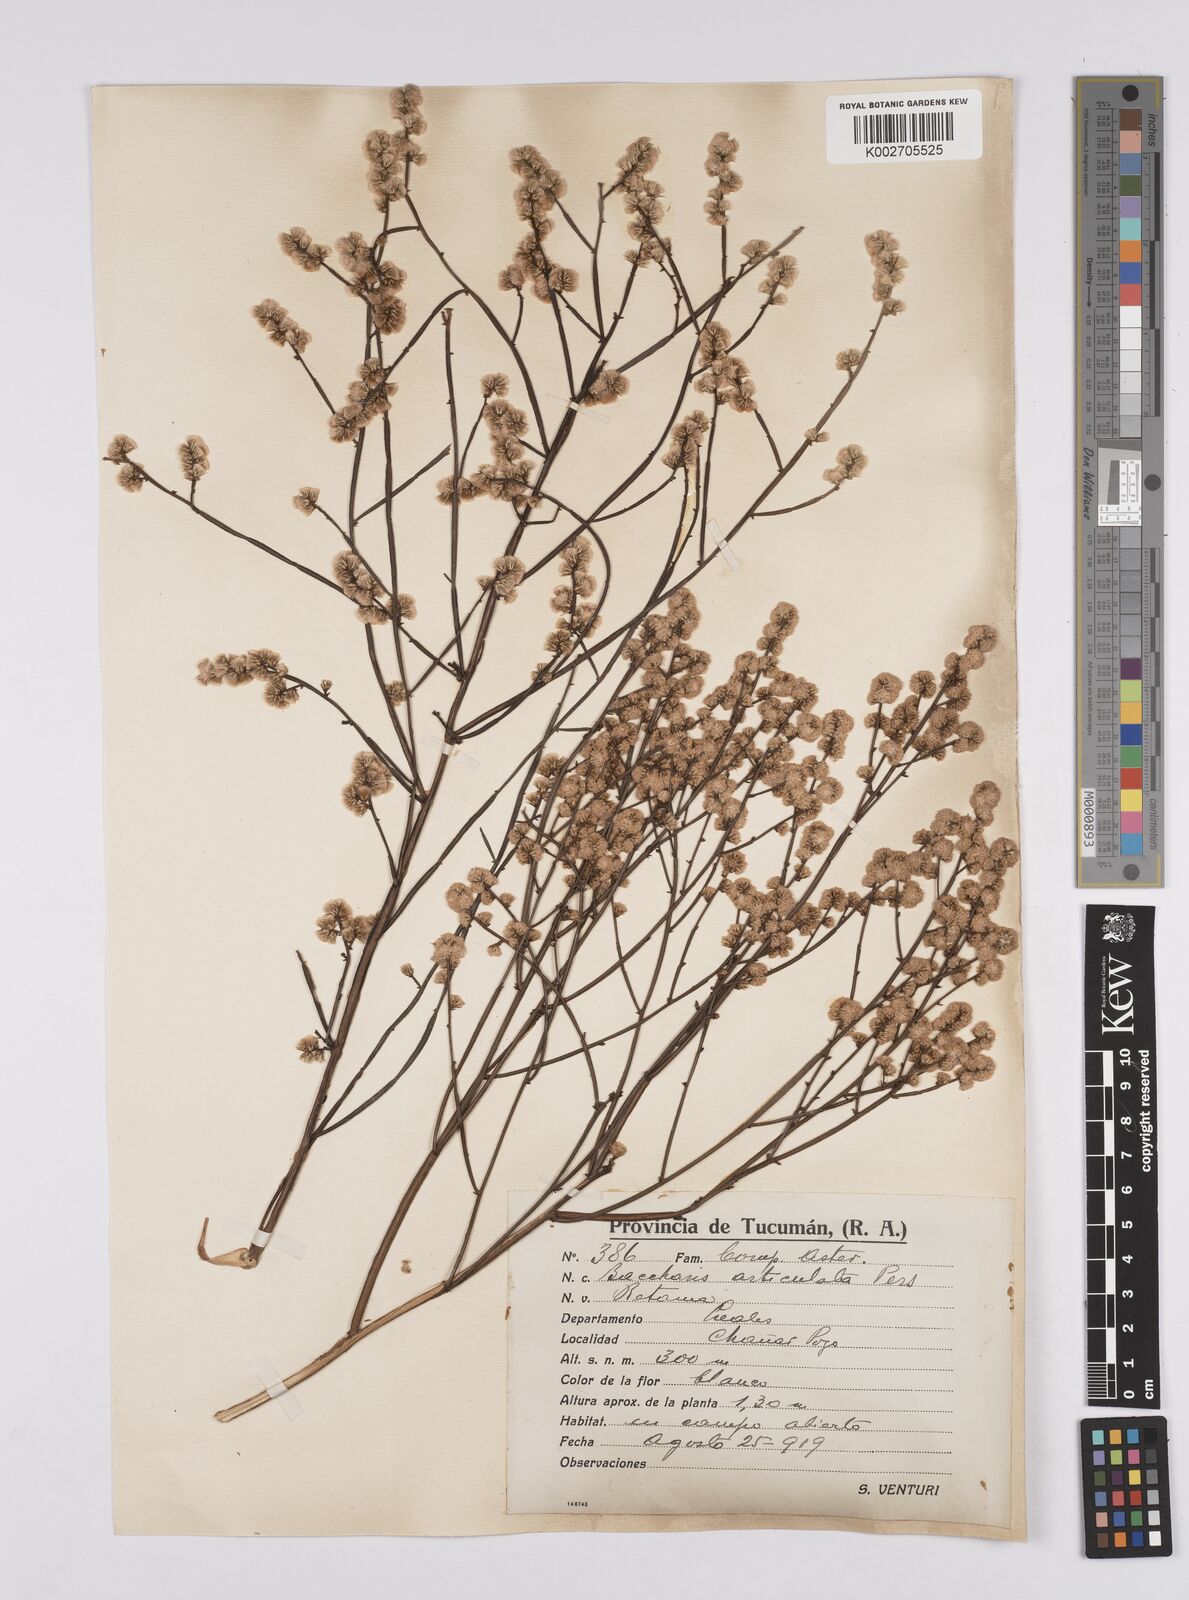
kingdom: Plantae
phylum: Tracheophyta
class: Magnoliopsida
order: Asterales
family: Asteraceae
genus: Baccharis
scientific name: Baccharis articulata
